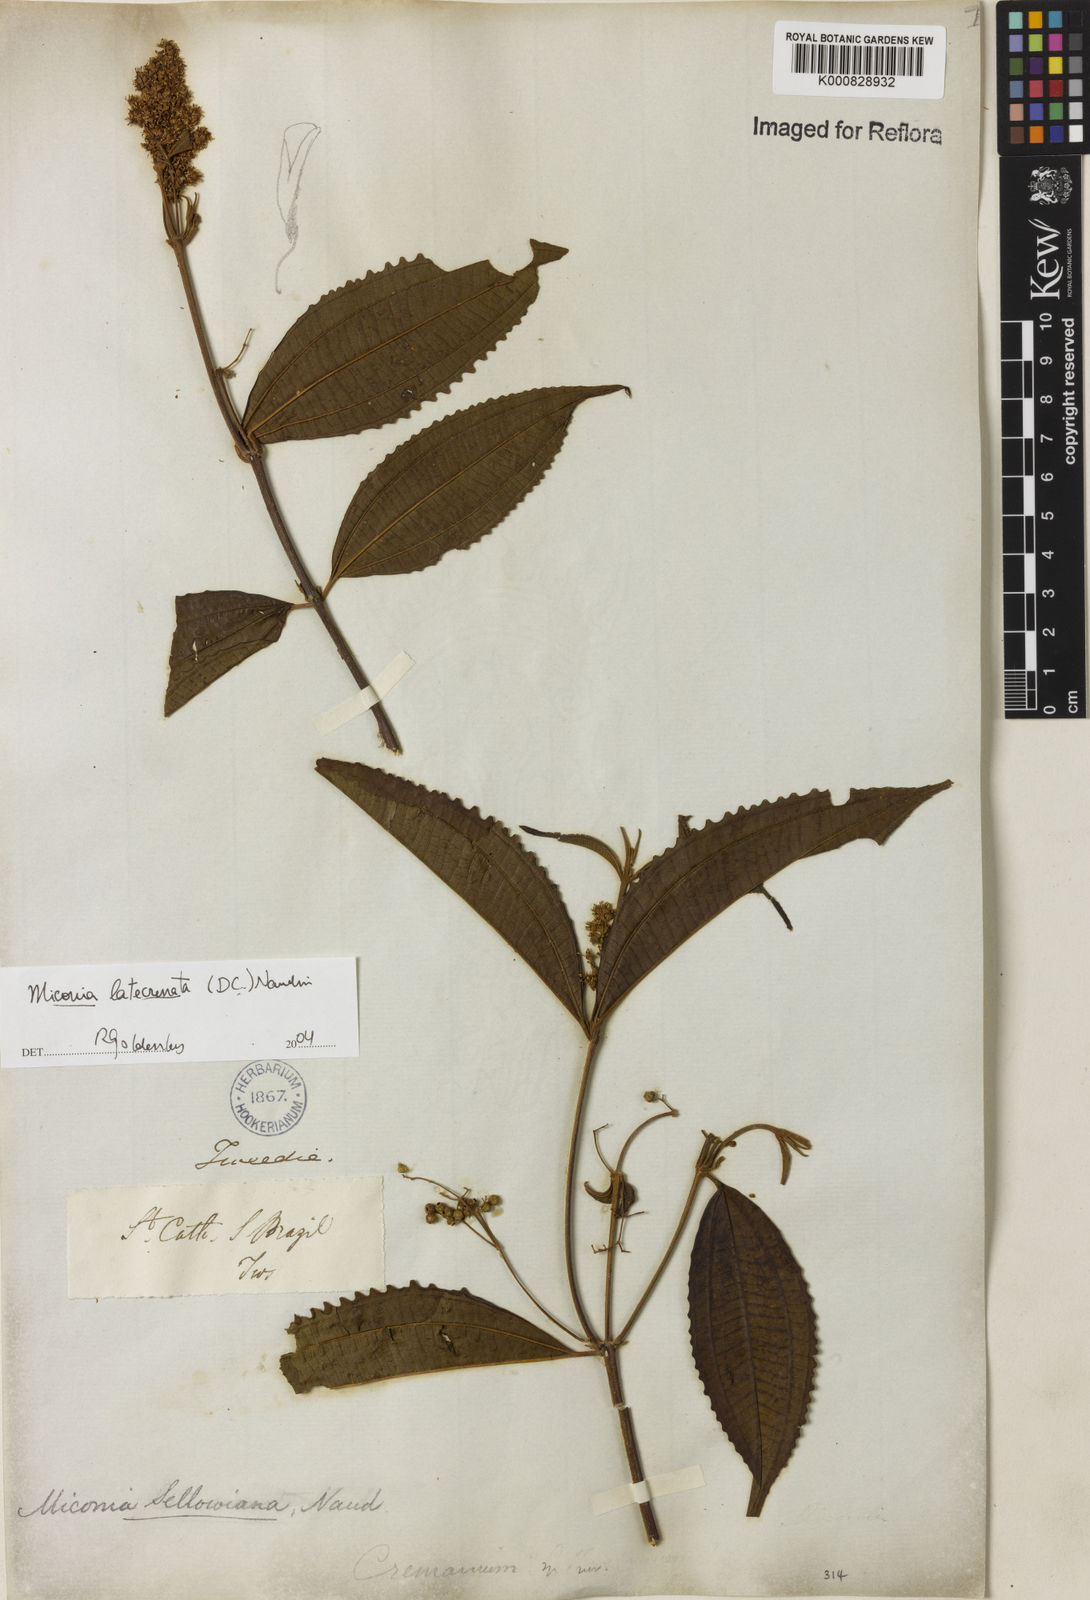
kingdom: Plantae
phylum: Tracheophyta
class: Magnoliopsida
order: Myrtales
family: Melastomataceae
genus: Miconia
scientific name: Miconia latecrenata
